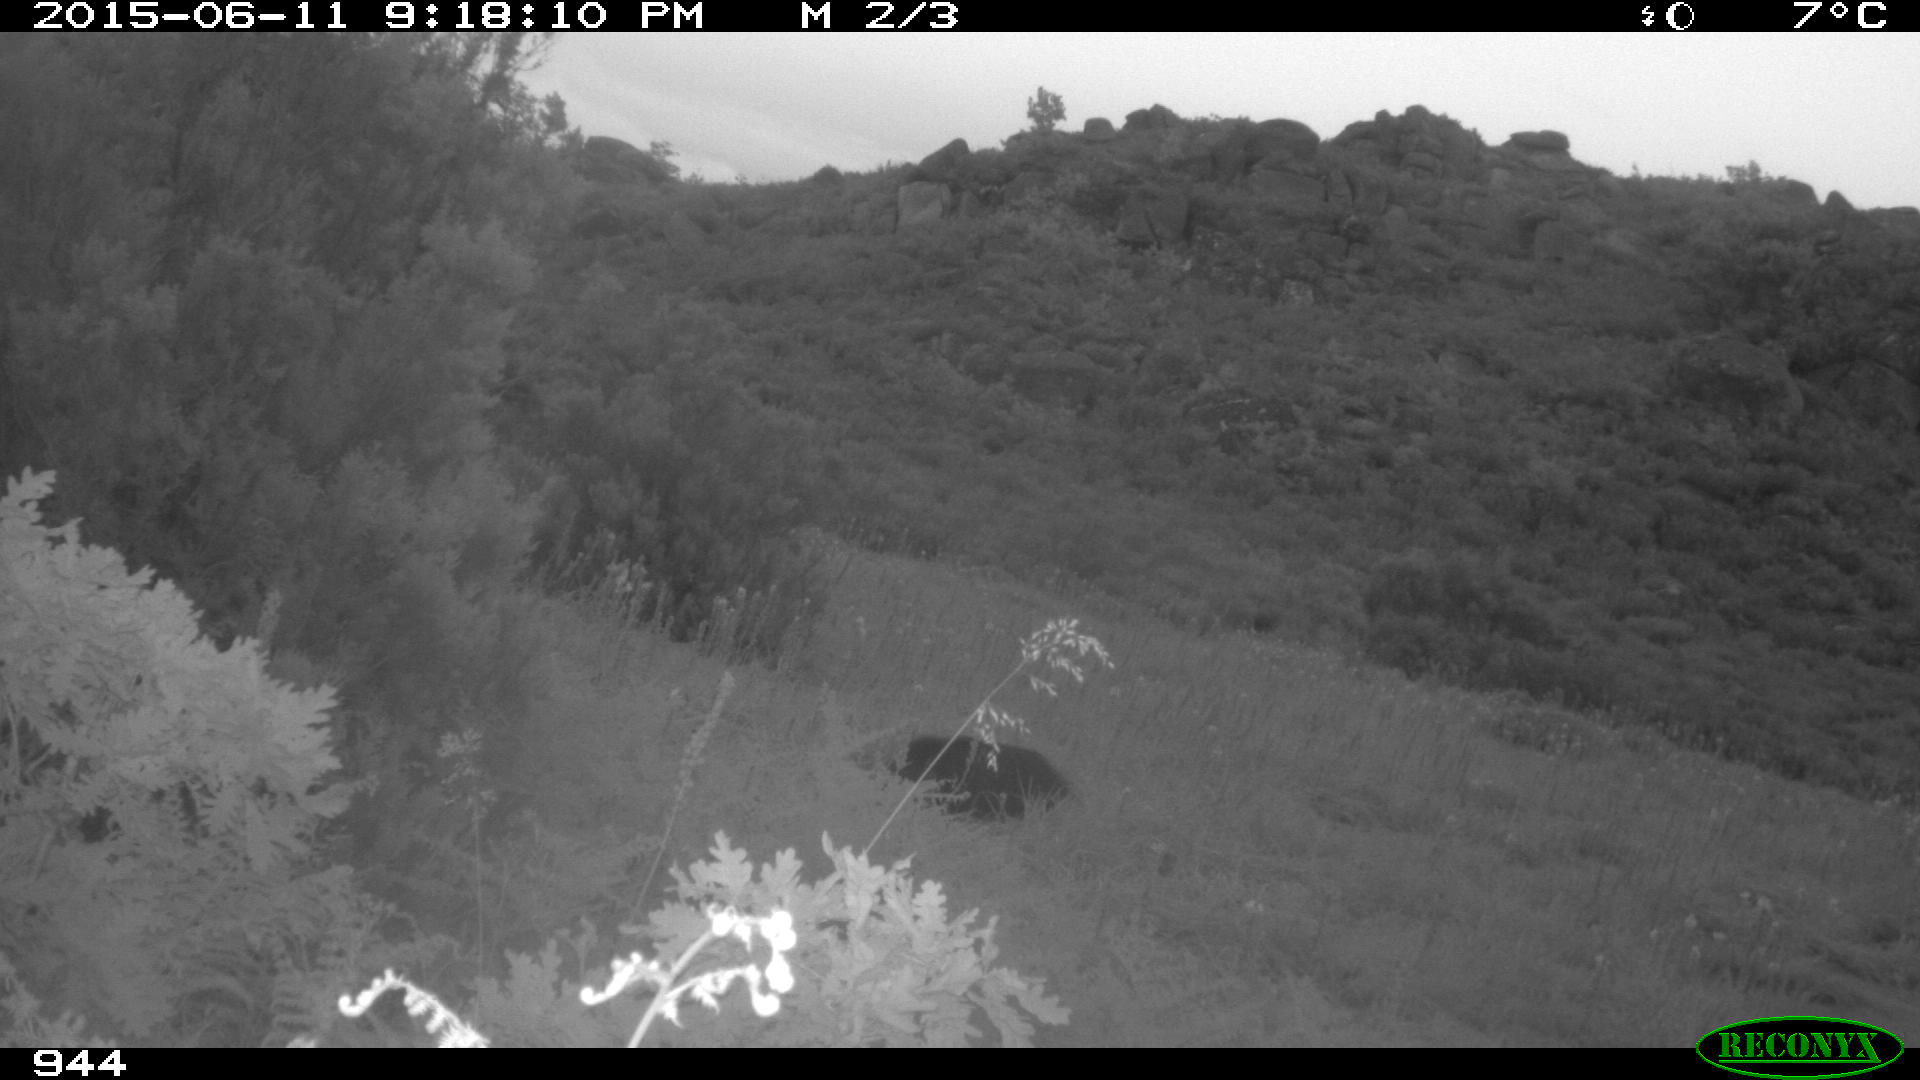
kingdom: Animalia
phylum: Chordata
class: Mammalia
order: Artiodactyla
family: Suidae
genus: Sus
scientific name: Sus scrofa
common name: Wild boar
